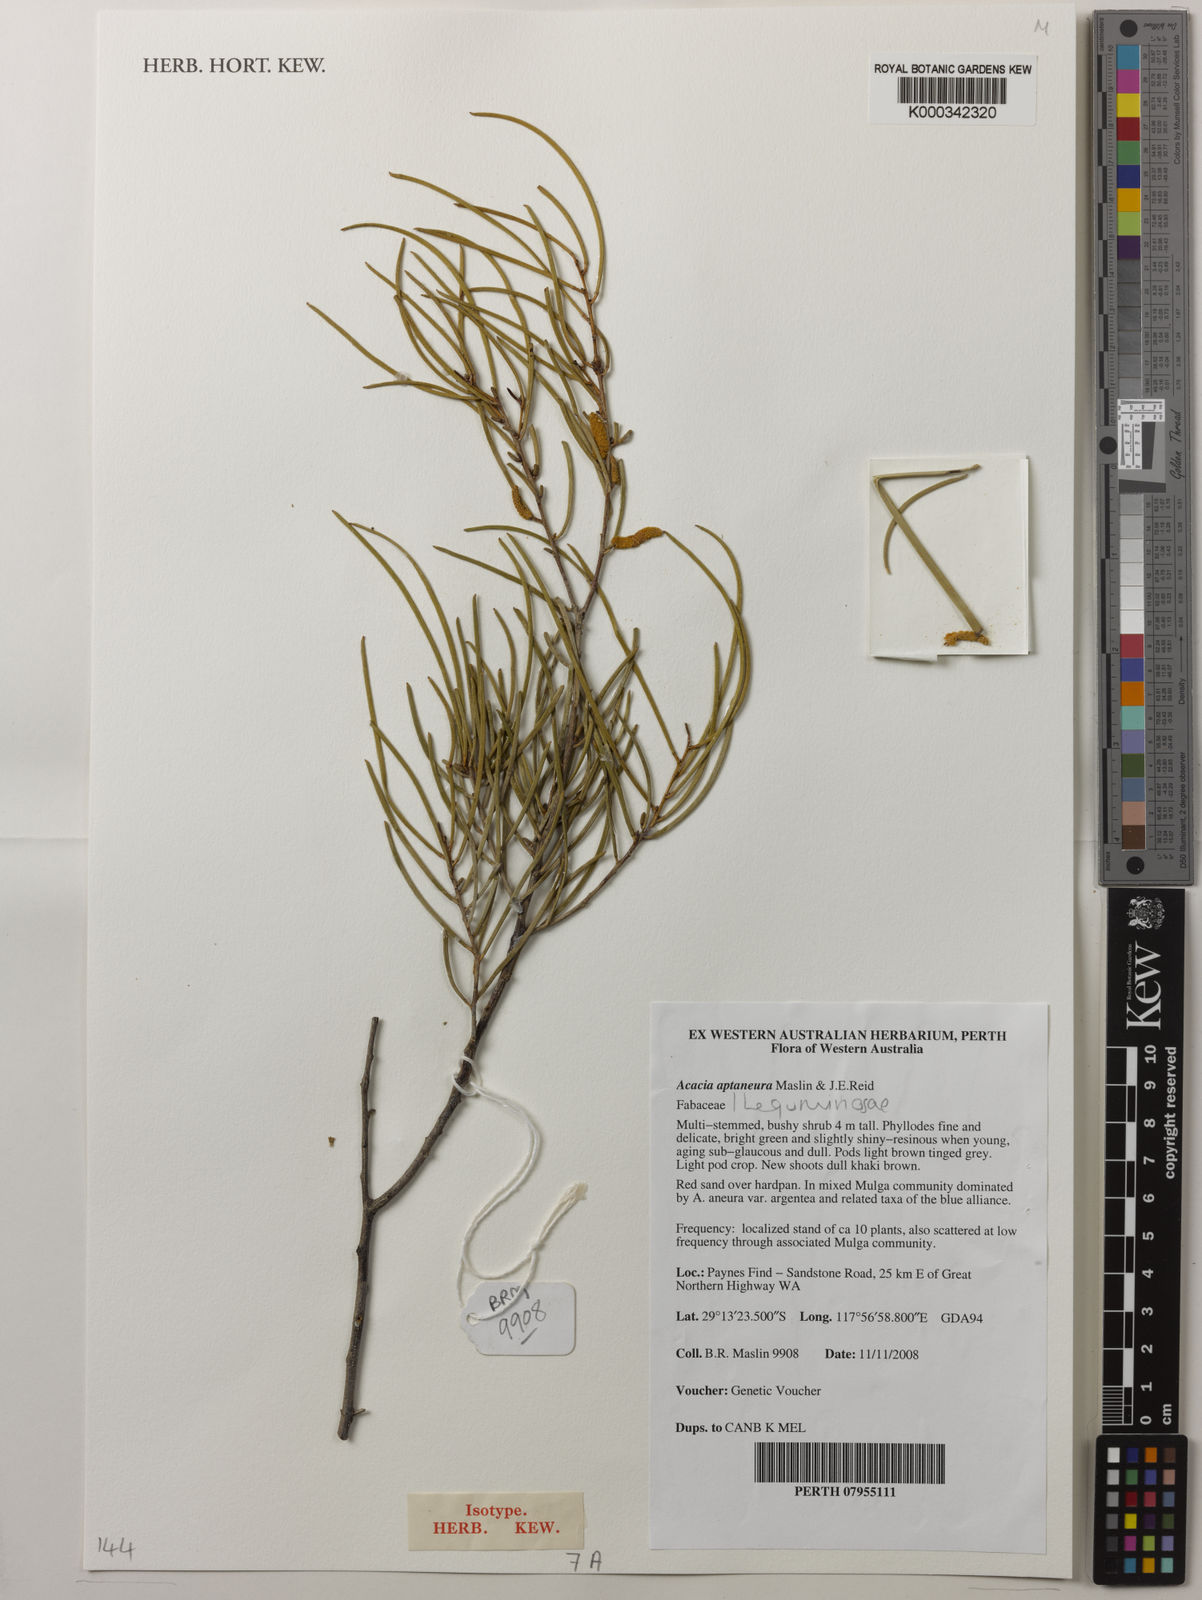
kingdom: Plantae
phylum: Tracheophyta
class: Magnoliopsida
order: Fabales
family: Fabaceae
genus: Acacia
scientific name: Acacia aptaneura
